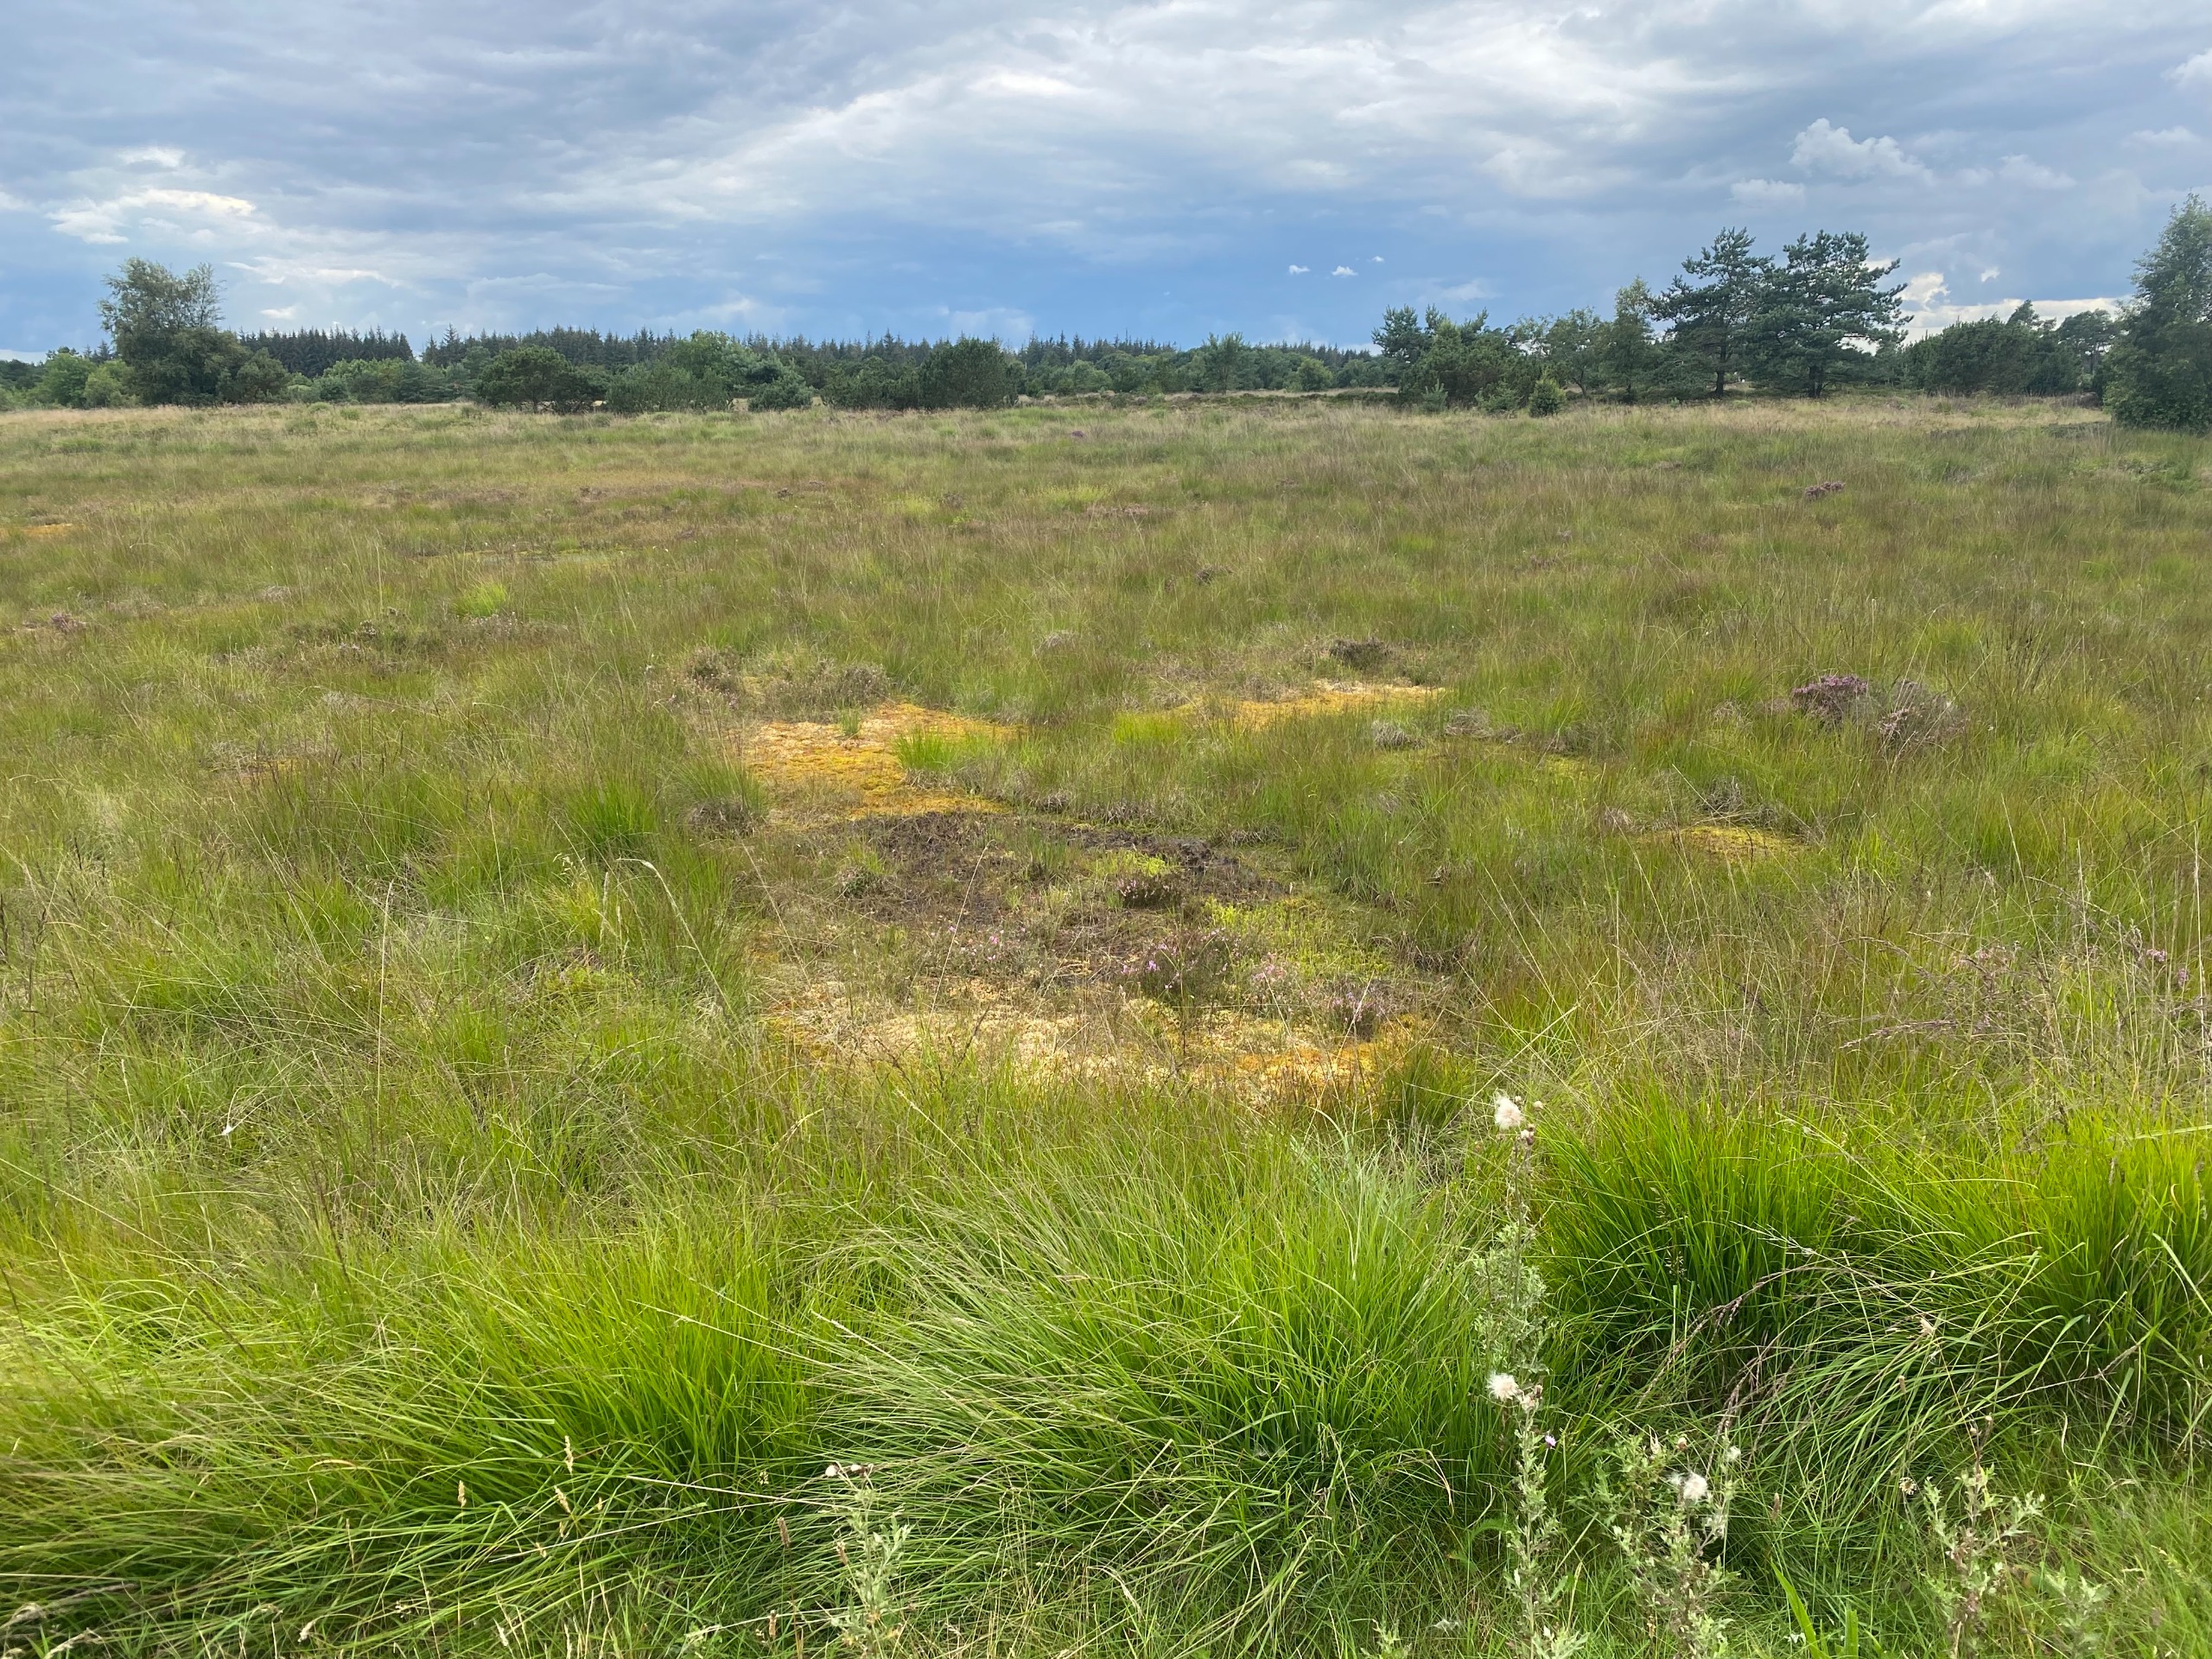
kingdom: Plantae
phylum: Tracheophyta
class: Lycopodiopsida
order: Lycopodiales
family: Lycopodiaceae
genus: Lycopodiella
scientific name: Lycopodiella inundata
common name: Liden ulvefod
